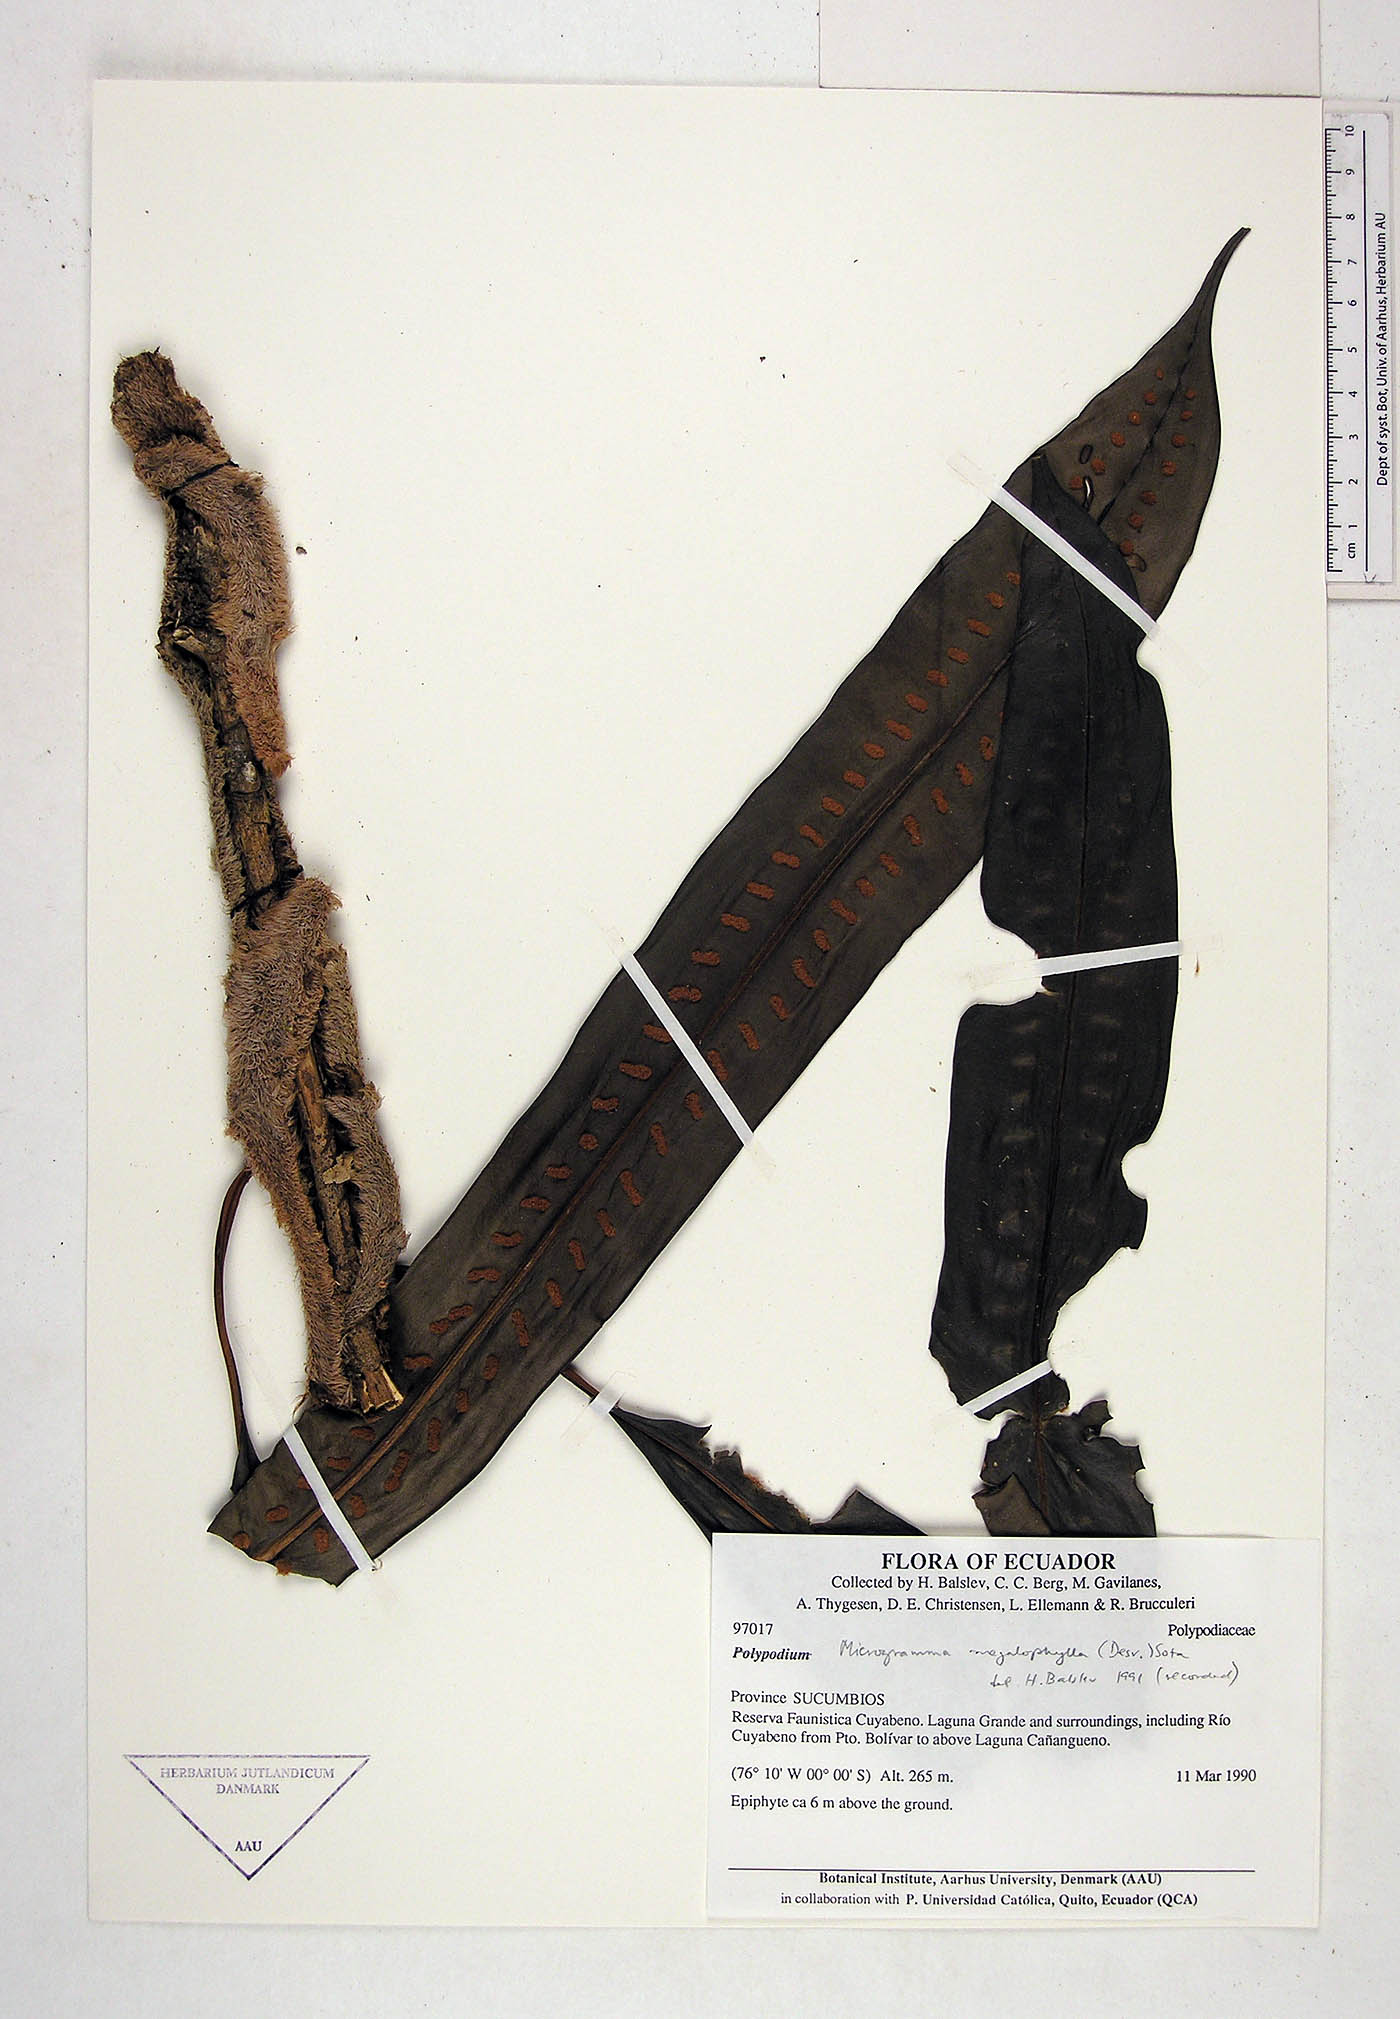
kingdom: Plantae
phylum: Tracheophyta
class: Polypodiopsida
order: Polypodiales
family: Polypodiaceae
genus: Microgramma
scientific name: Microgramma megalophylla
